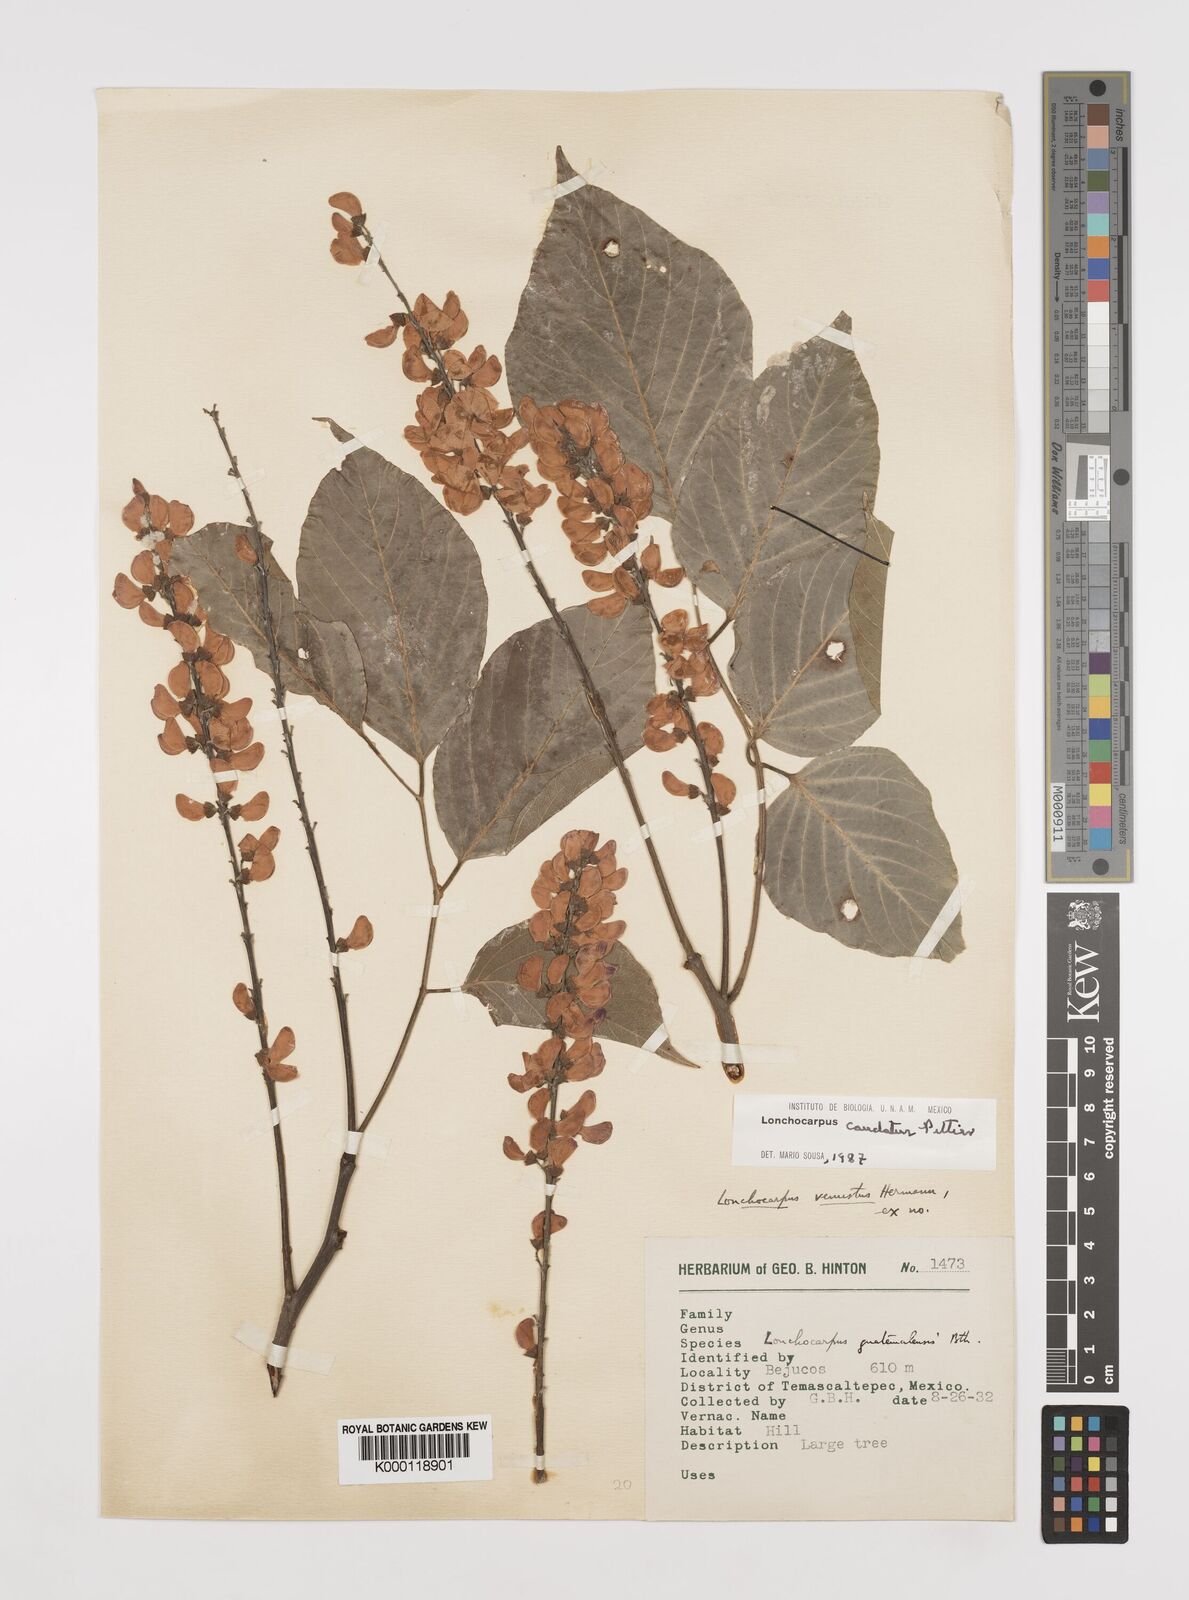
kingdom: Plantae
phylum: Tracheophyta
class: Magnoliopsida
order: Fabales
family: Fabaceae
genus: Lonchocarpus
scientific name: Lonchocarpus caudatus
